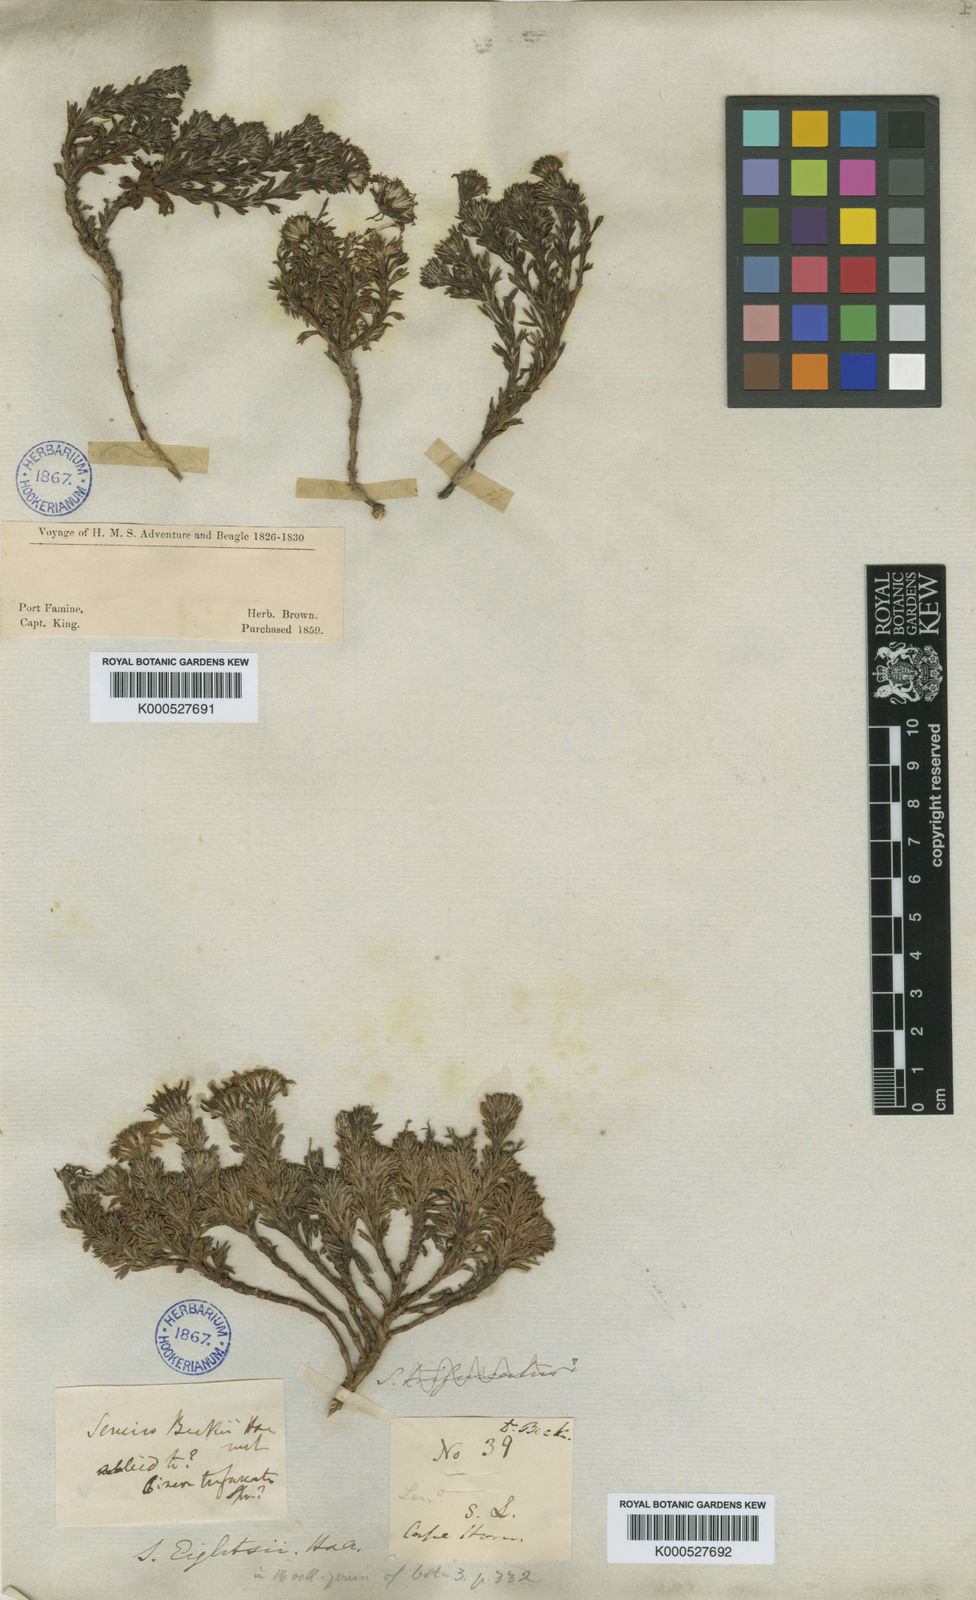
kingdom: Plantae
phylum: Tracheophyta
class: Magnoliopsida
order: Asterales
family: Asteraceae
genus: Senecio
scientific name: Senecio
